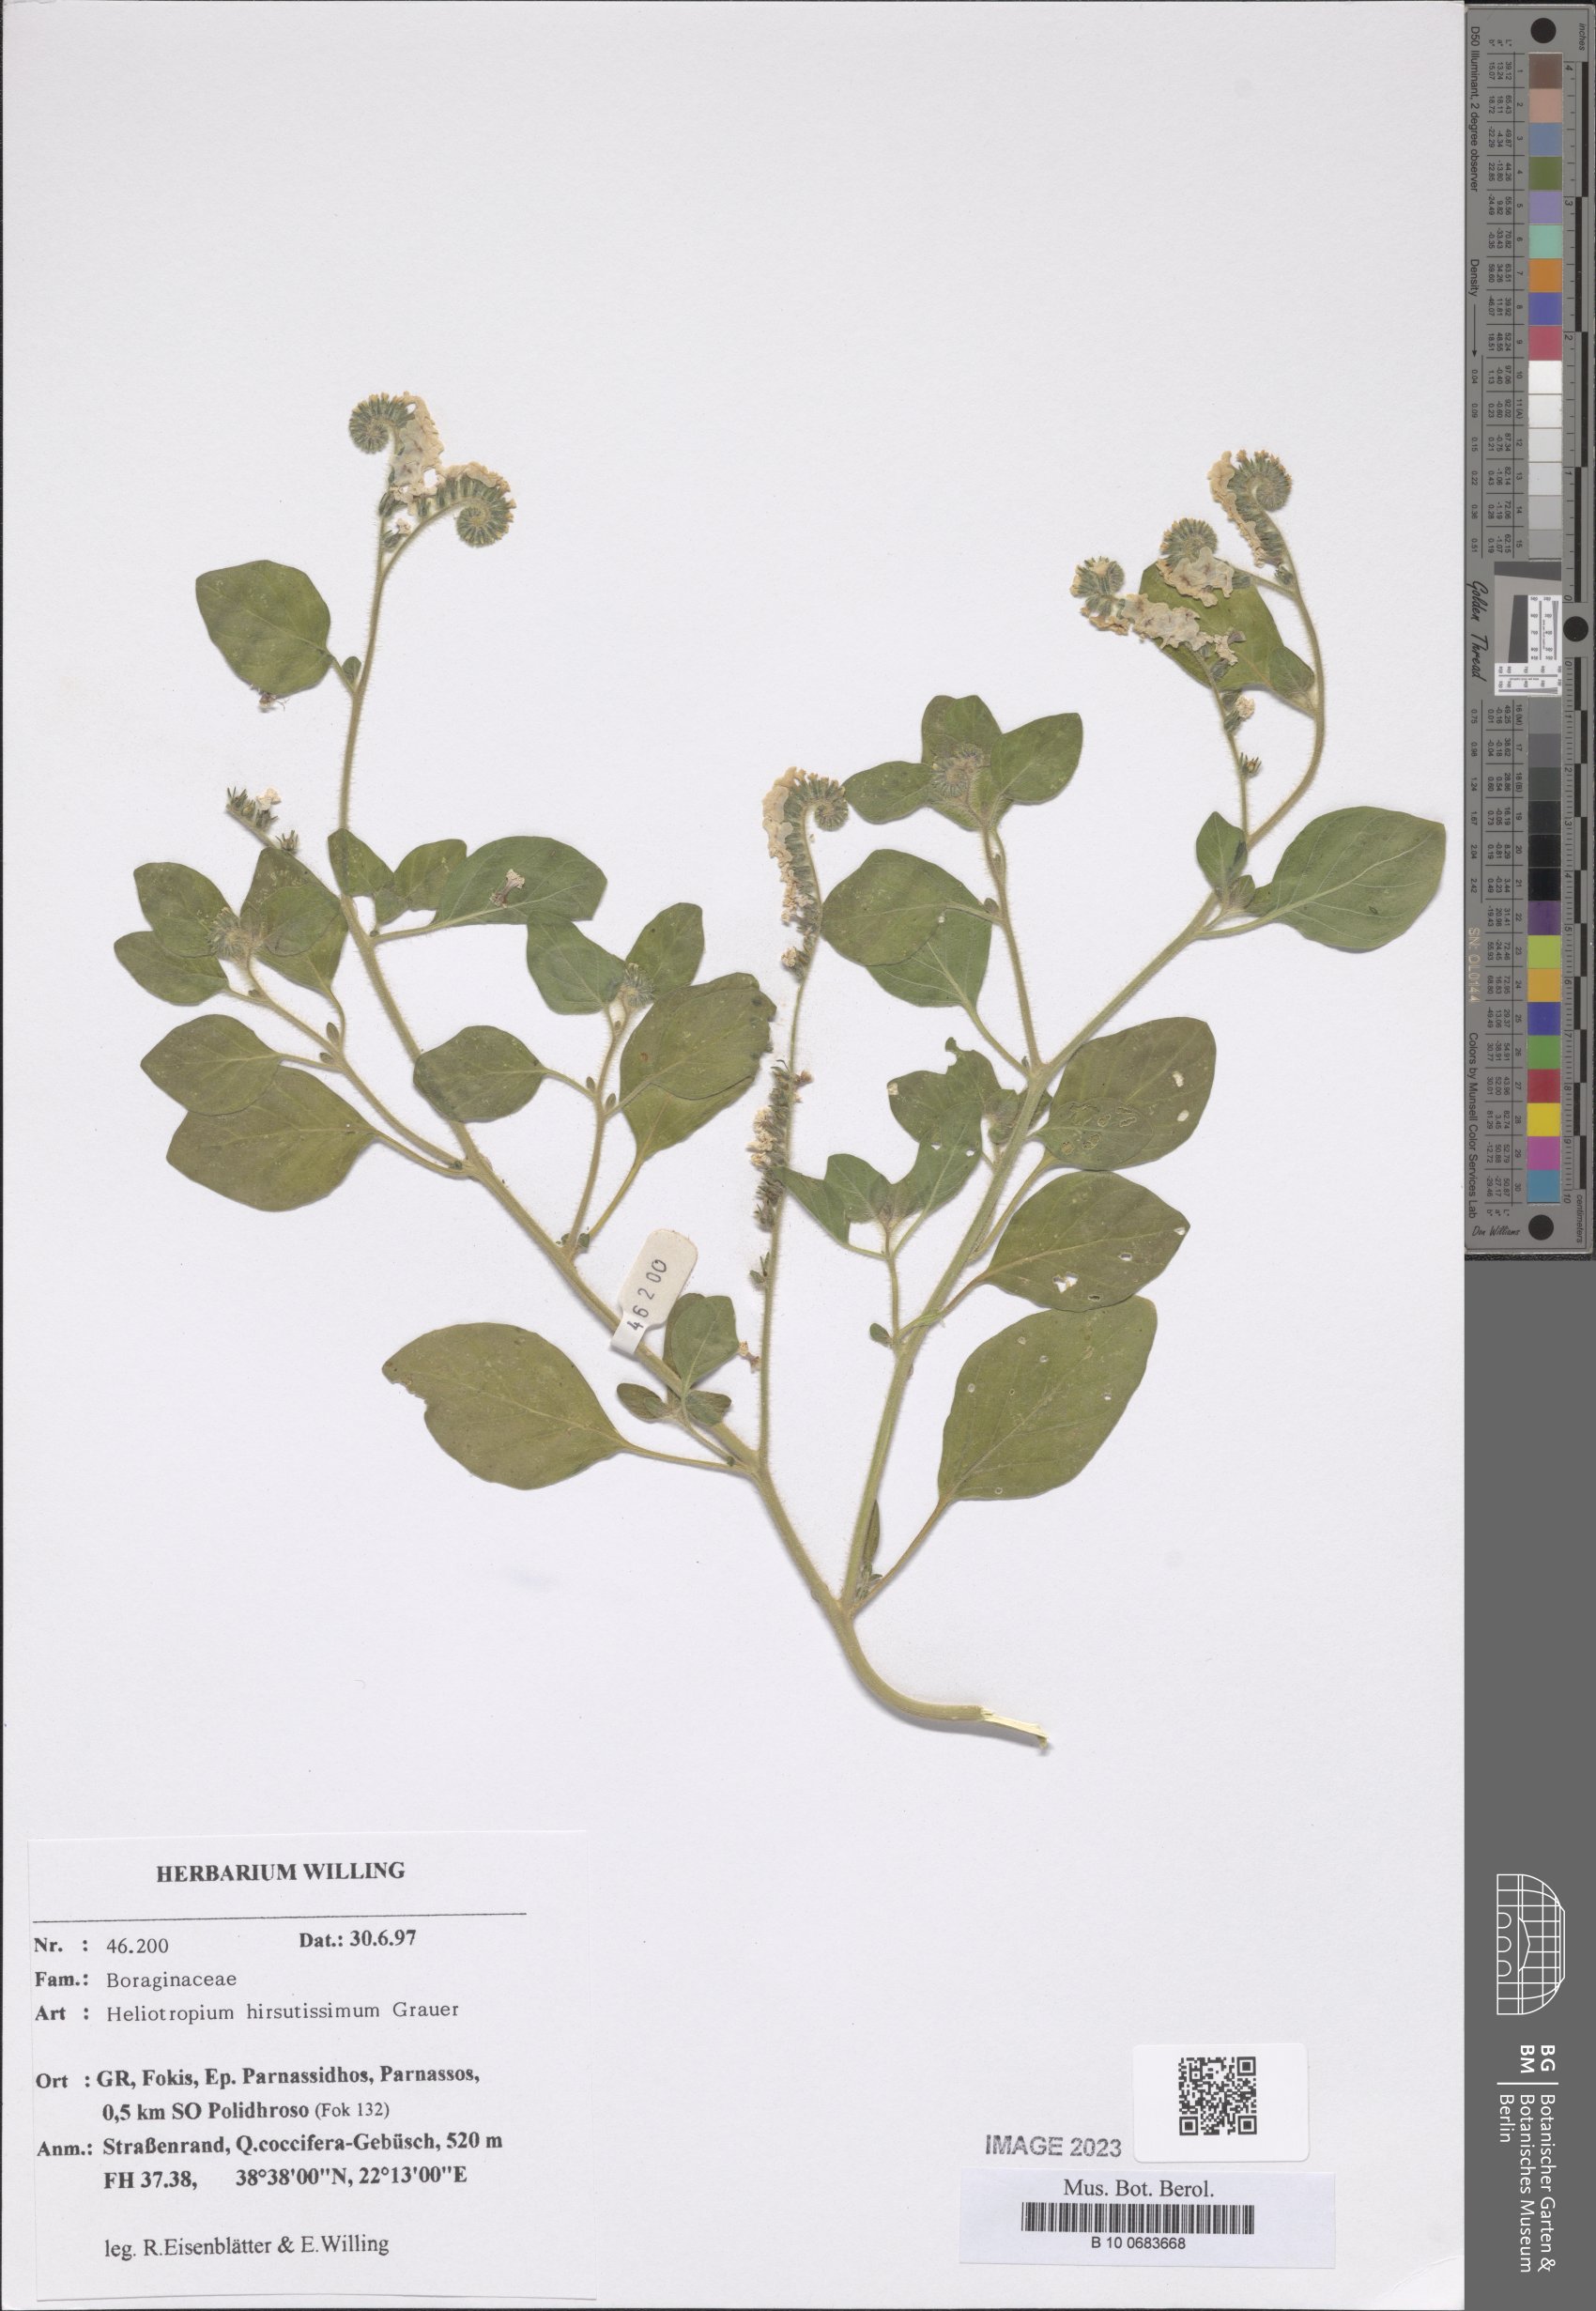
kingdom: Plantae
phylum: Tracheophyta
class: Magnoliopsida
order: Boraginales
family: Heliotropiaceae
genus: Heliotropium
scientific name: Heliotropium hirsutissimum
